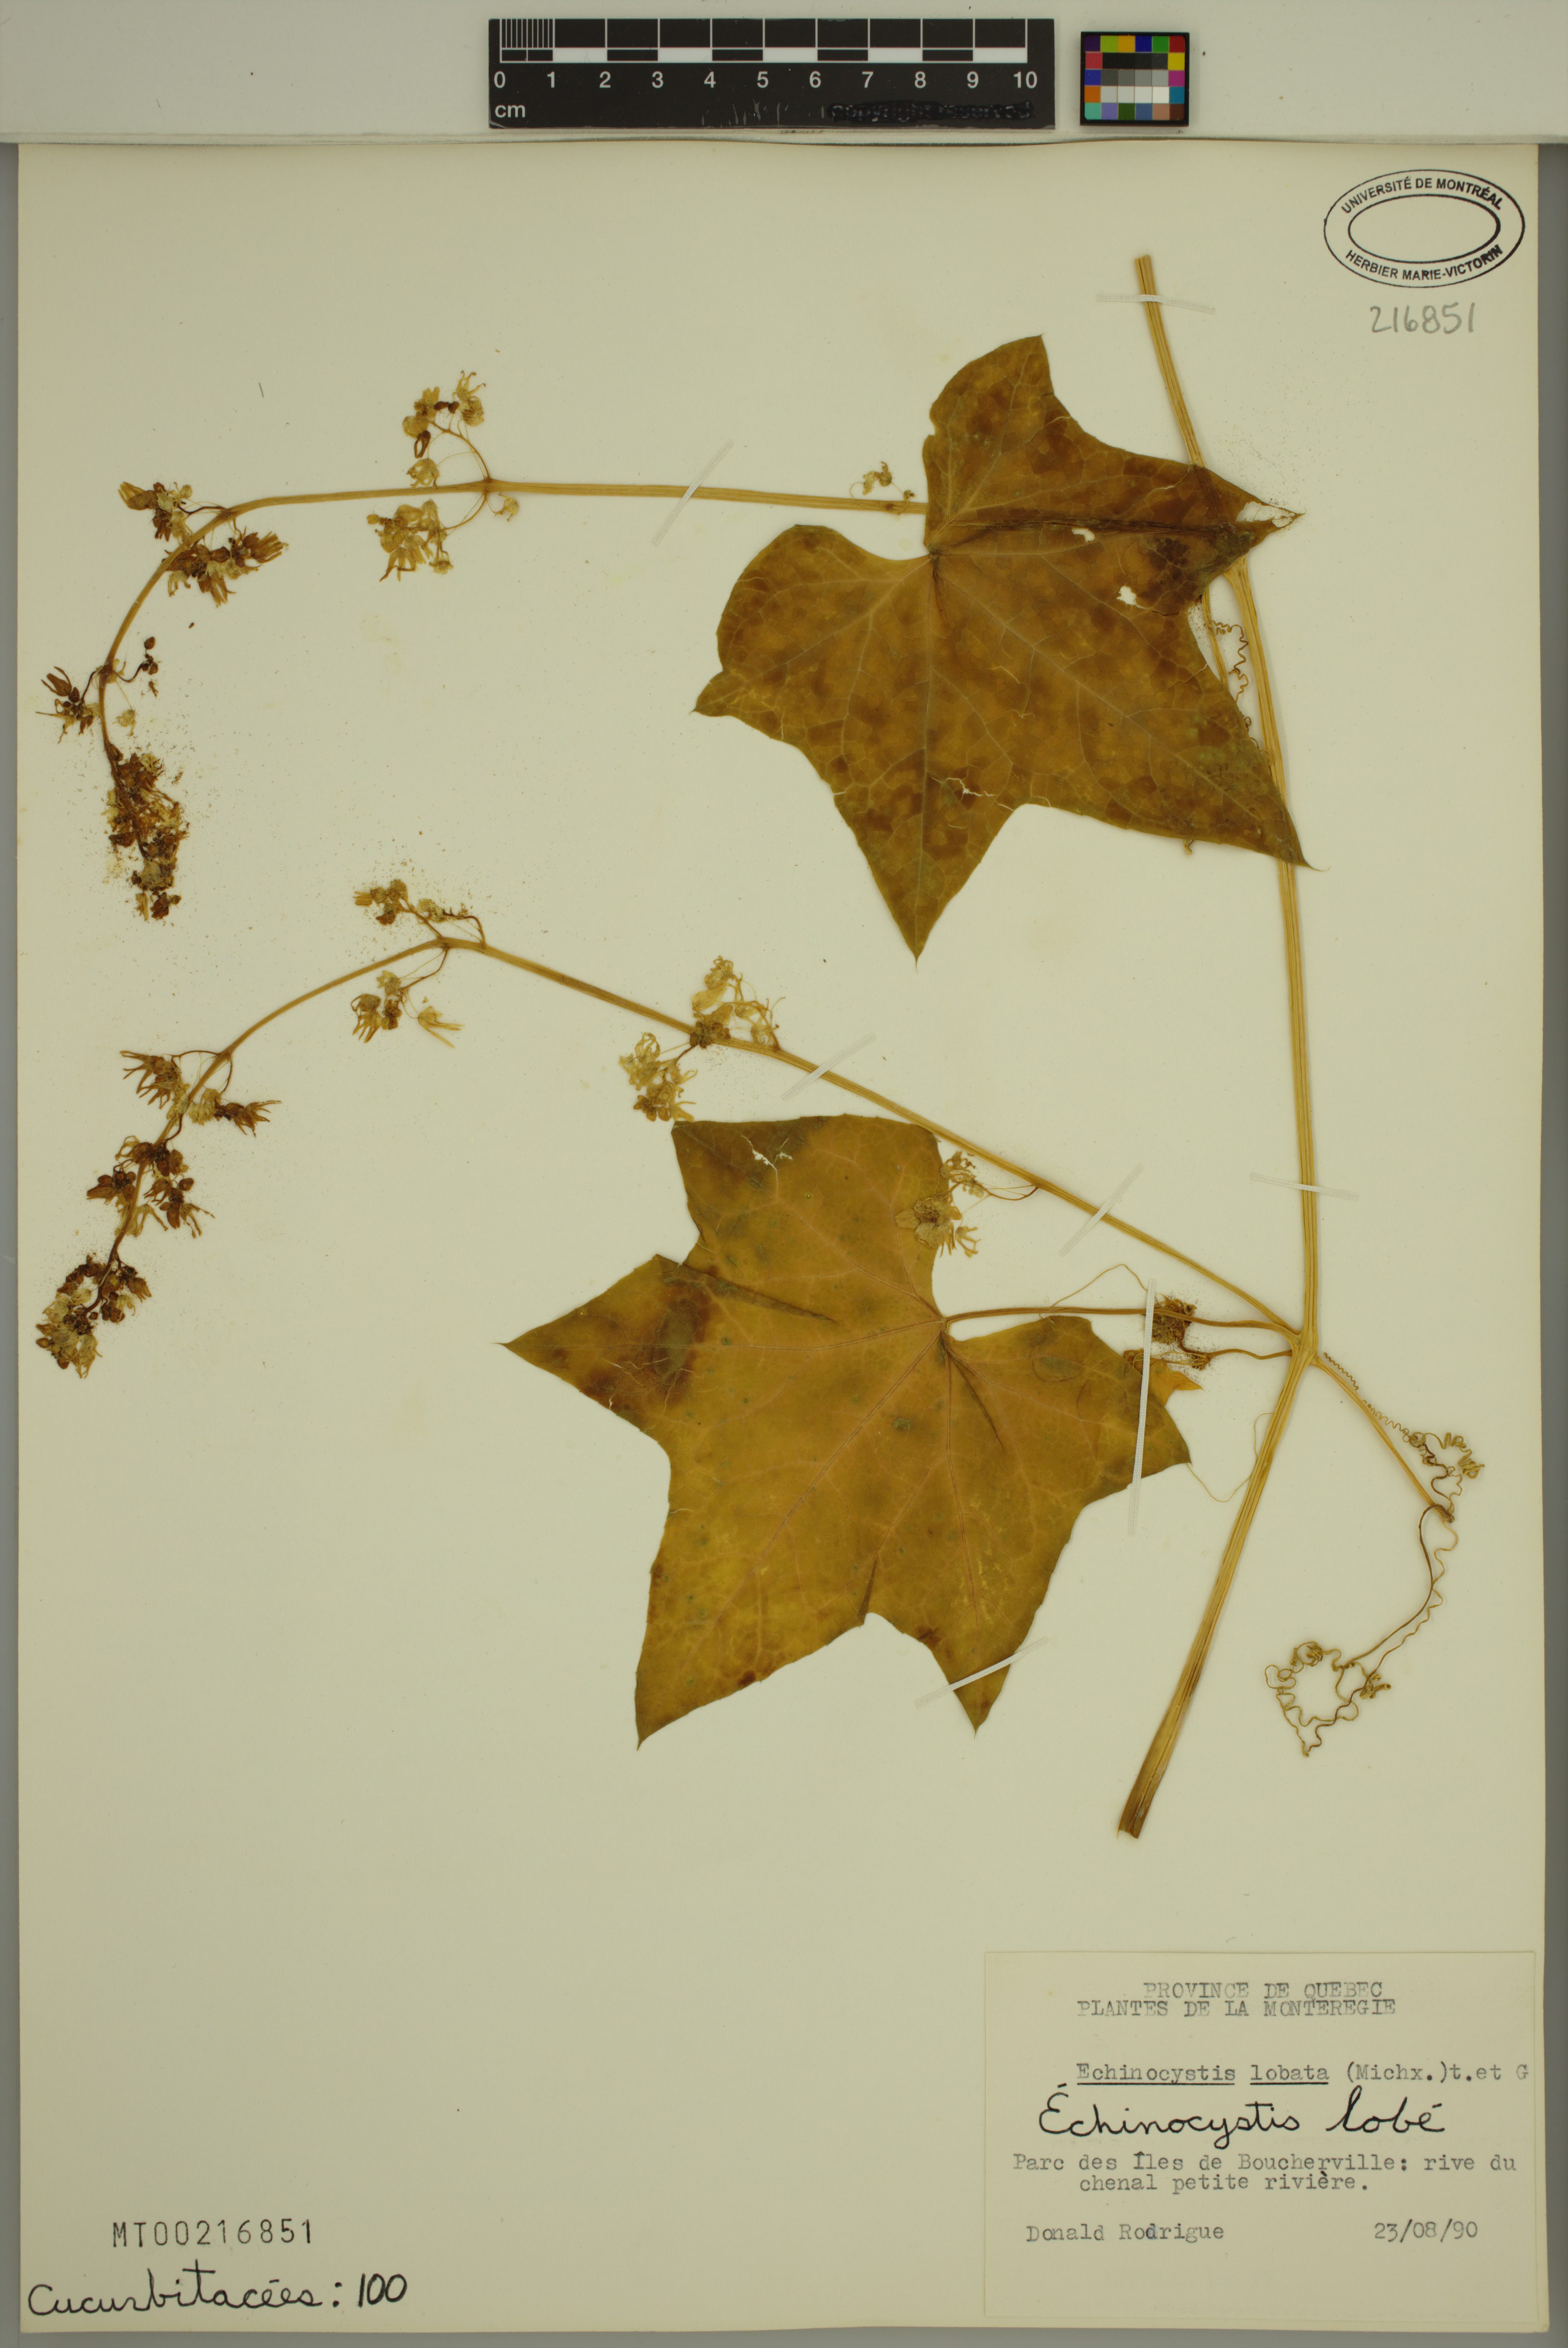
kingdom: Plantae
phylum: Tracheophyta
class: Magnoliopsida
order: Cucurbitales
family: Cucurbitaceae
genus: Echinocystis
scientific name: Echinocystis lobata
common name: Wild cucumber
